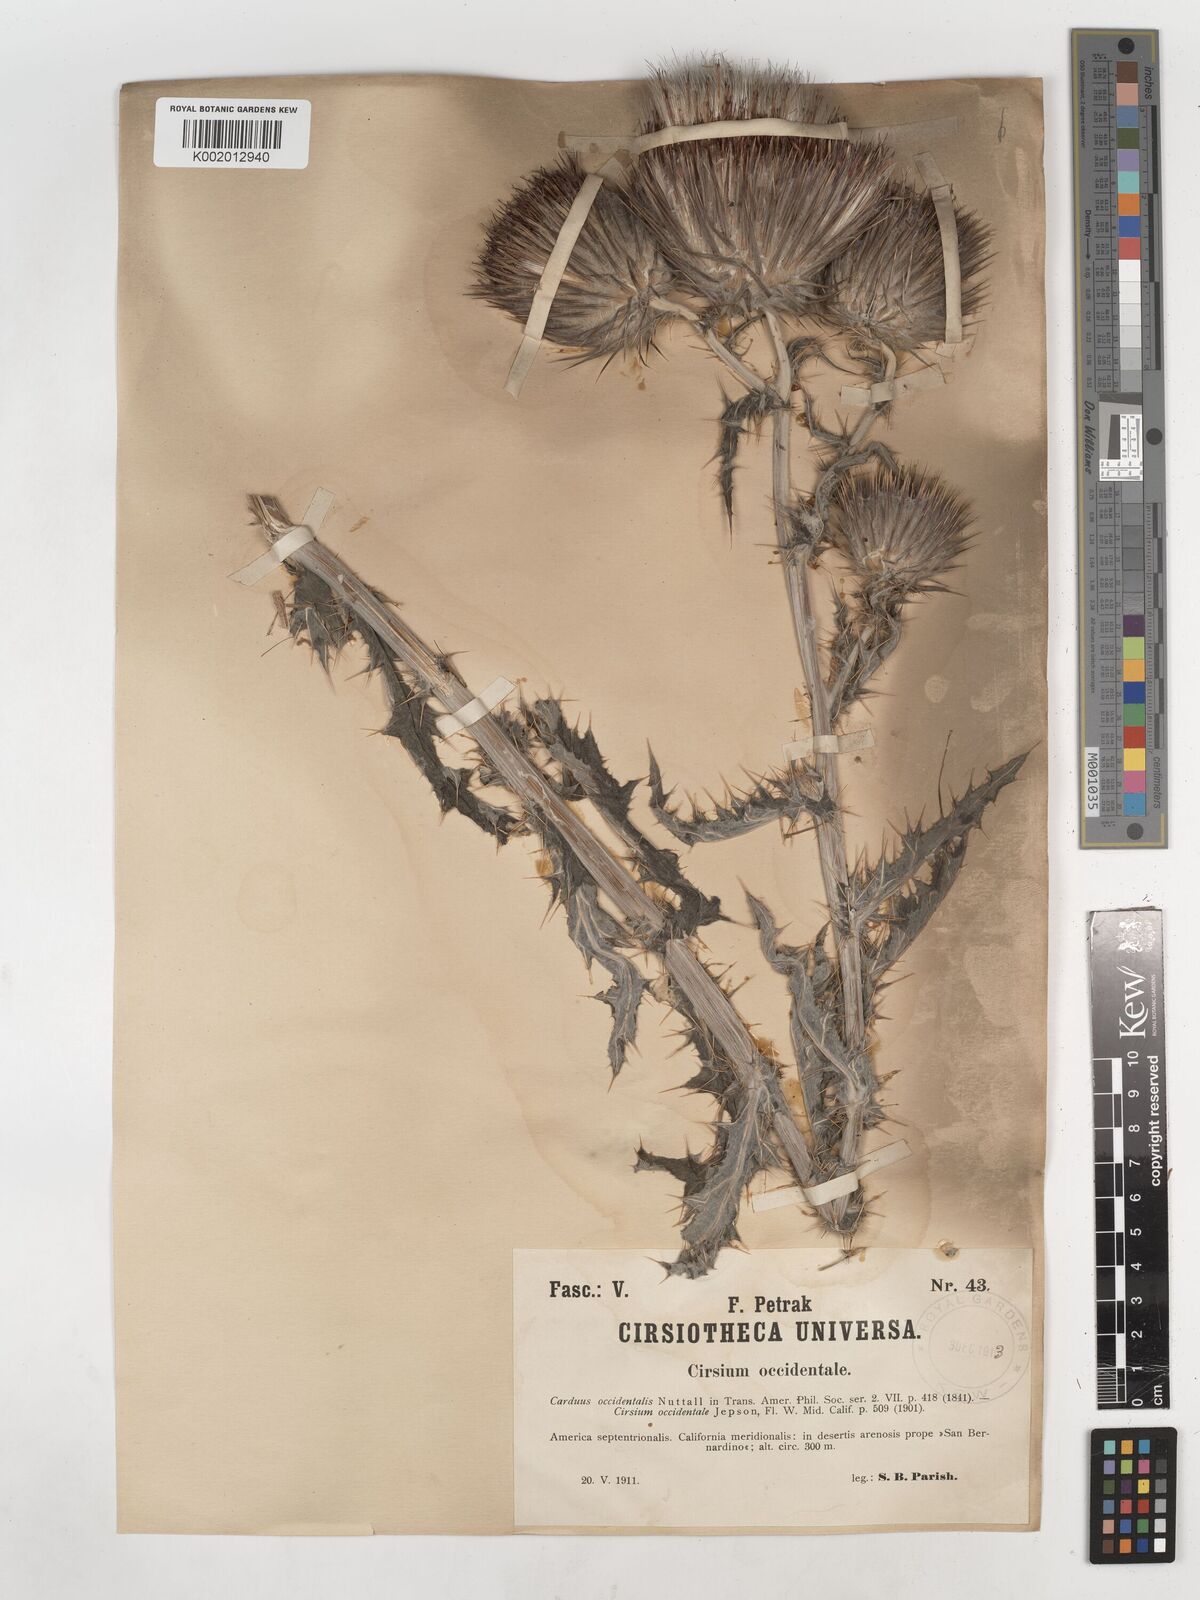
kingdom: Plantae
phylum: Tracheophyta
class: Magnoliopsida
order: Asterales
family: Asteraceae
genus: Cirsium
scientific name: Cirsium occidentale
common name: Western thistle
